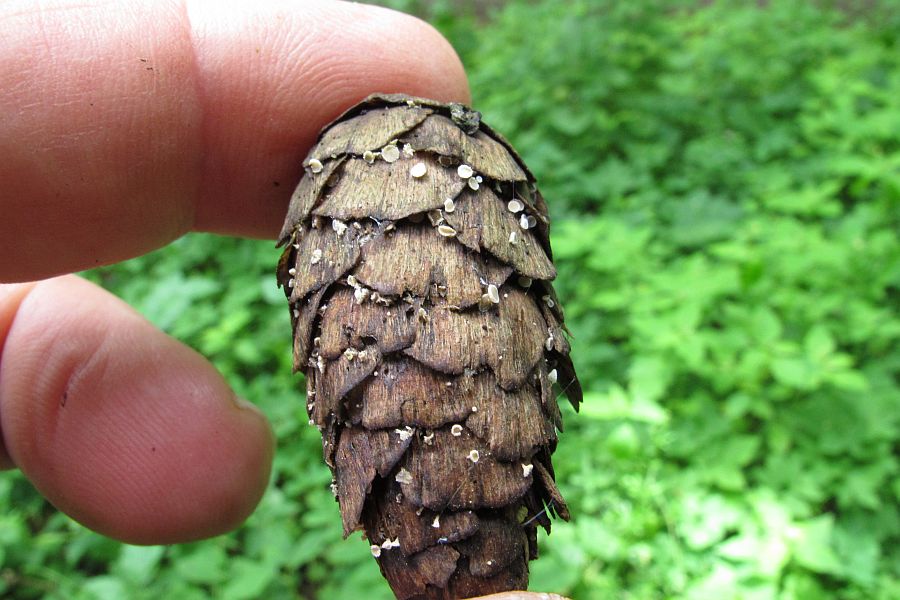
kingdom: Fungi
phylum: Ascomycota
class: Leotiomycetes
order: Helotiales
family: Lachnaceae
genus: Lachnum
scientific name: Lachnum virgineum
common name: jomfru-frynseskive
